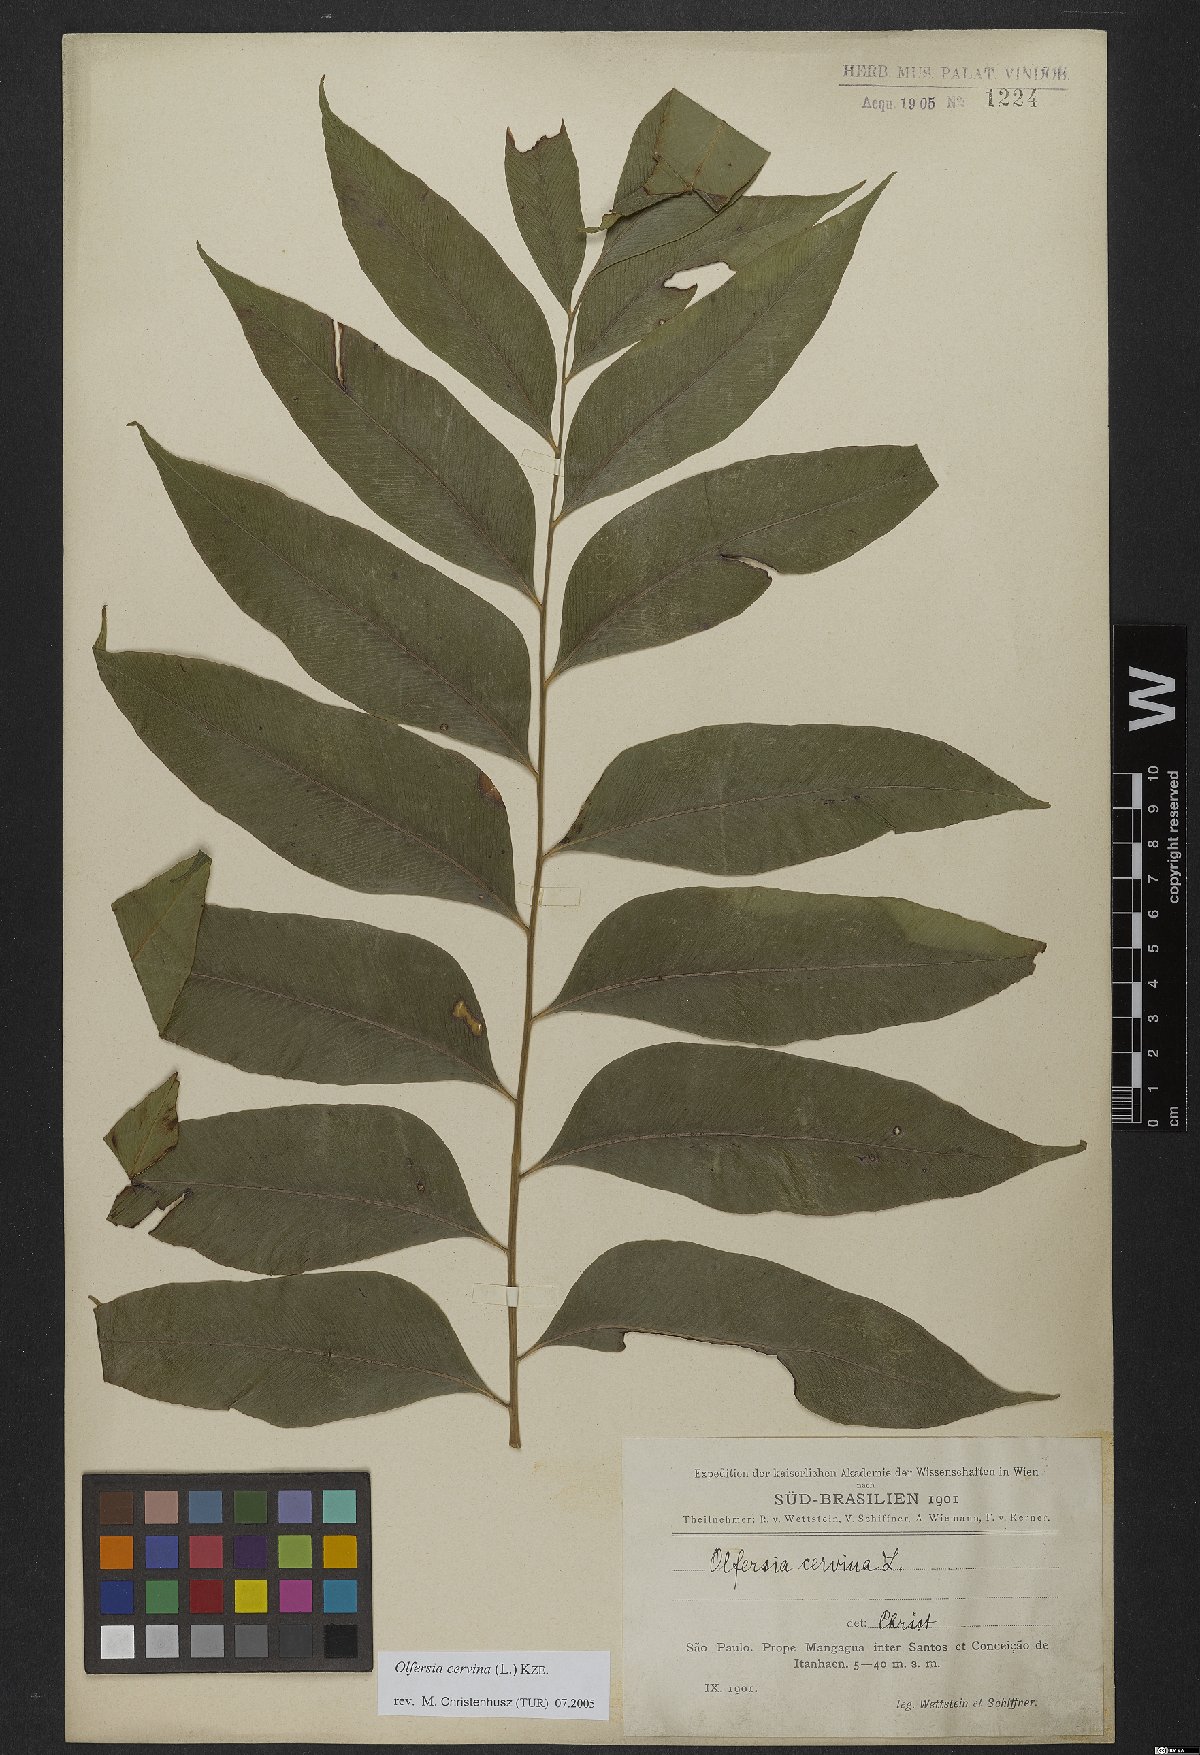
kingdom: Plantae
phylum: Tracheophyta
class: Polypodiopsida
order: Polypodiales
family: Dryopteridaceae
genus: Olfersia
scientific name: Olfersia cervina
